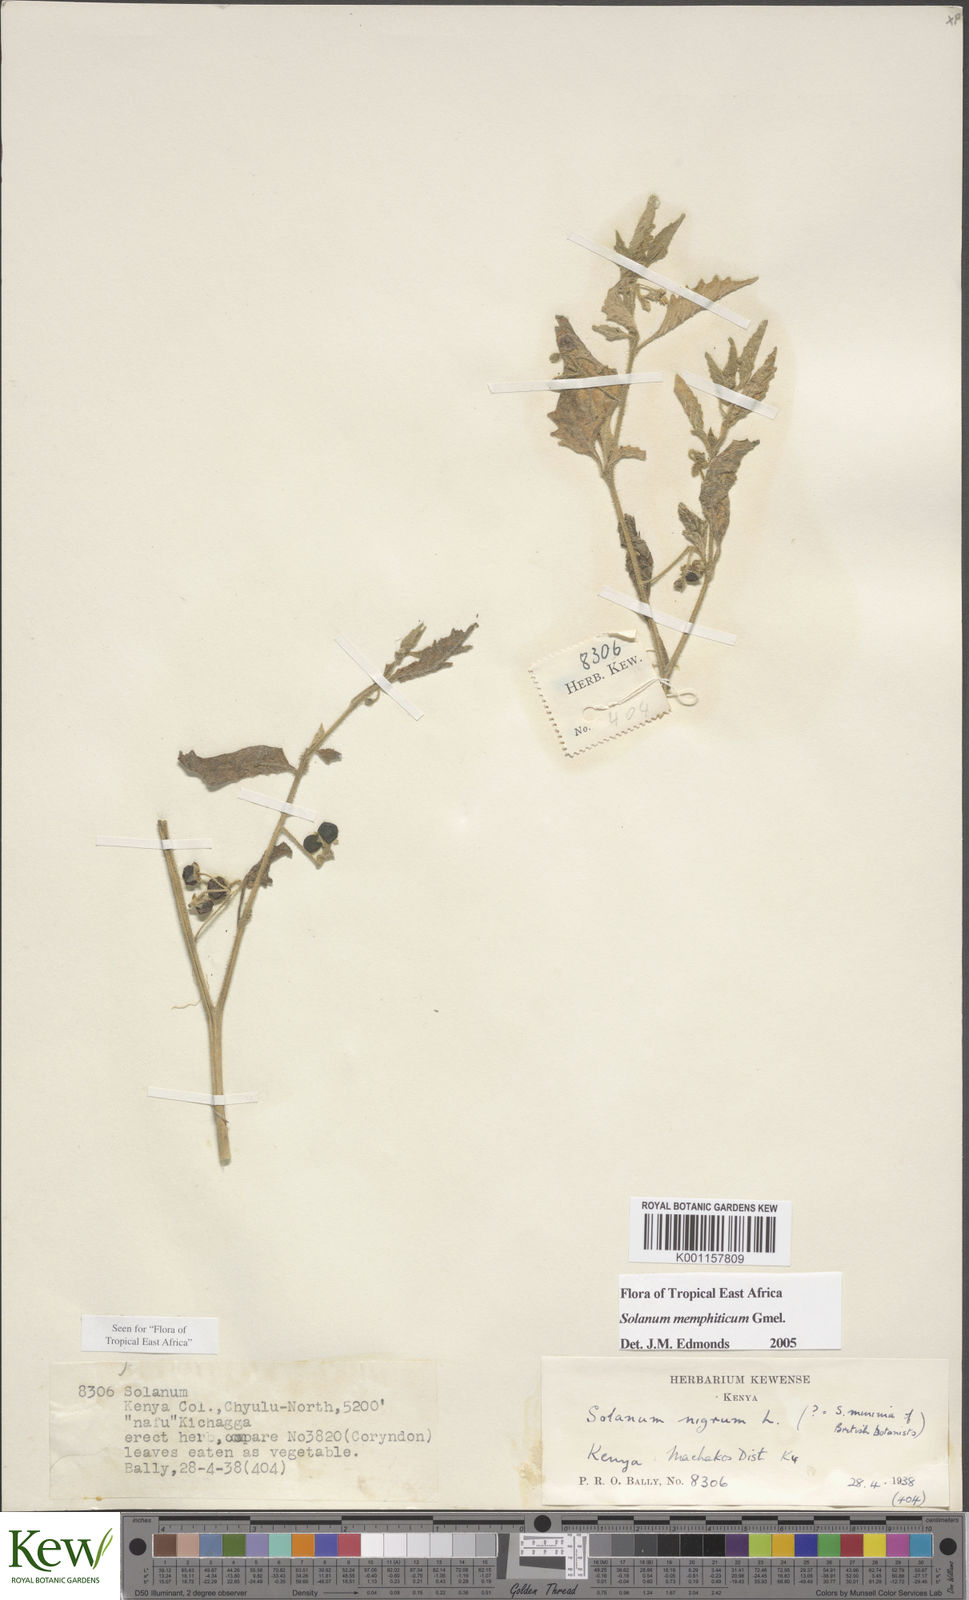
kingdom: Plantae
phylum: Tracheophyta
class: Magnoliopsida
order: Solanales
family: Solanaceae
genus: Solanum
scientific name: Solanum
